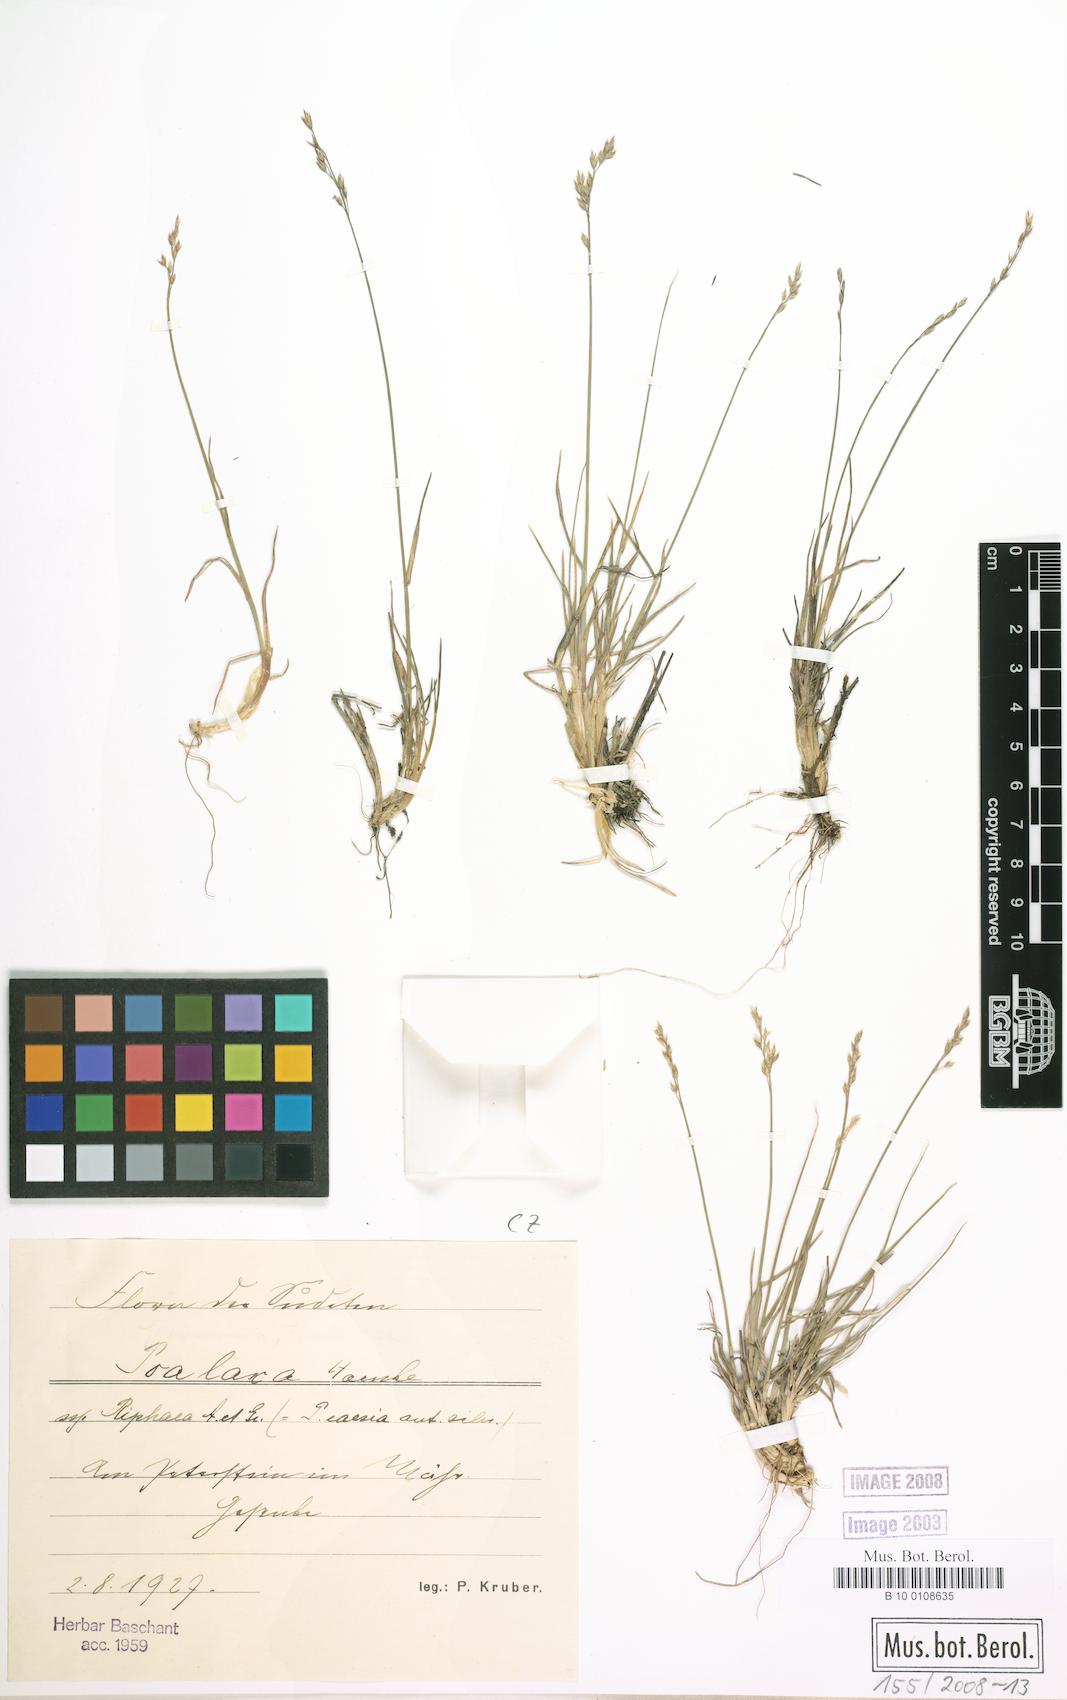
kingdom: Plantae
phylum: Tracheophyta
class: Liliopsida
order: Poales
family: Poaceae
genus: Poa
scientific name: Poa glauca
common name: Glaucous bluegrass
